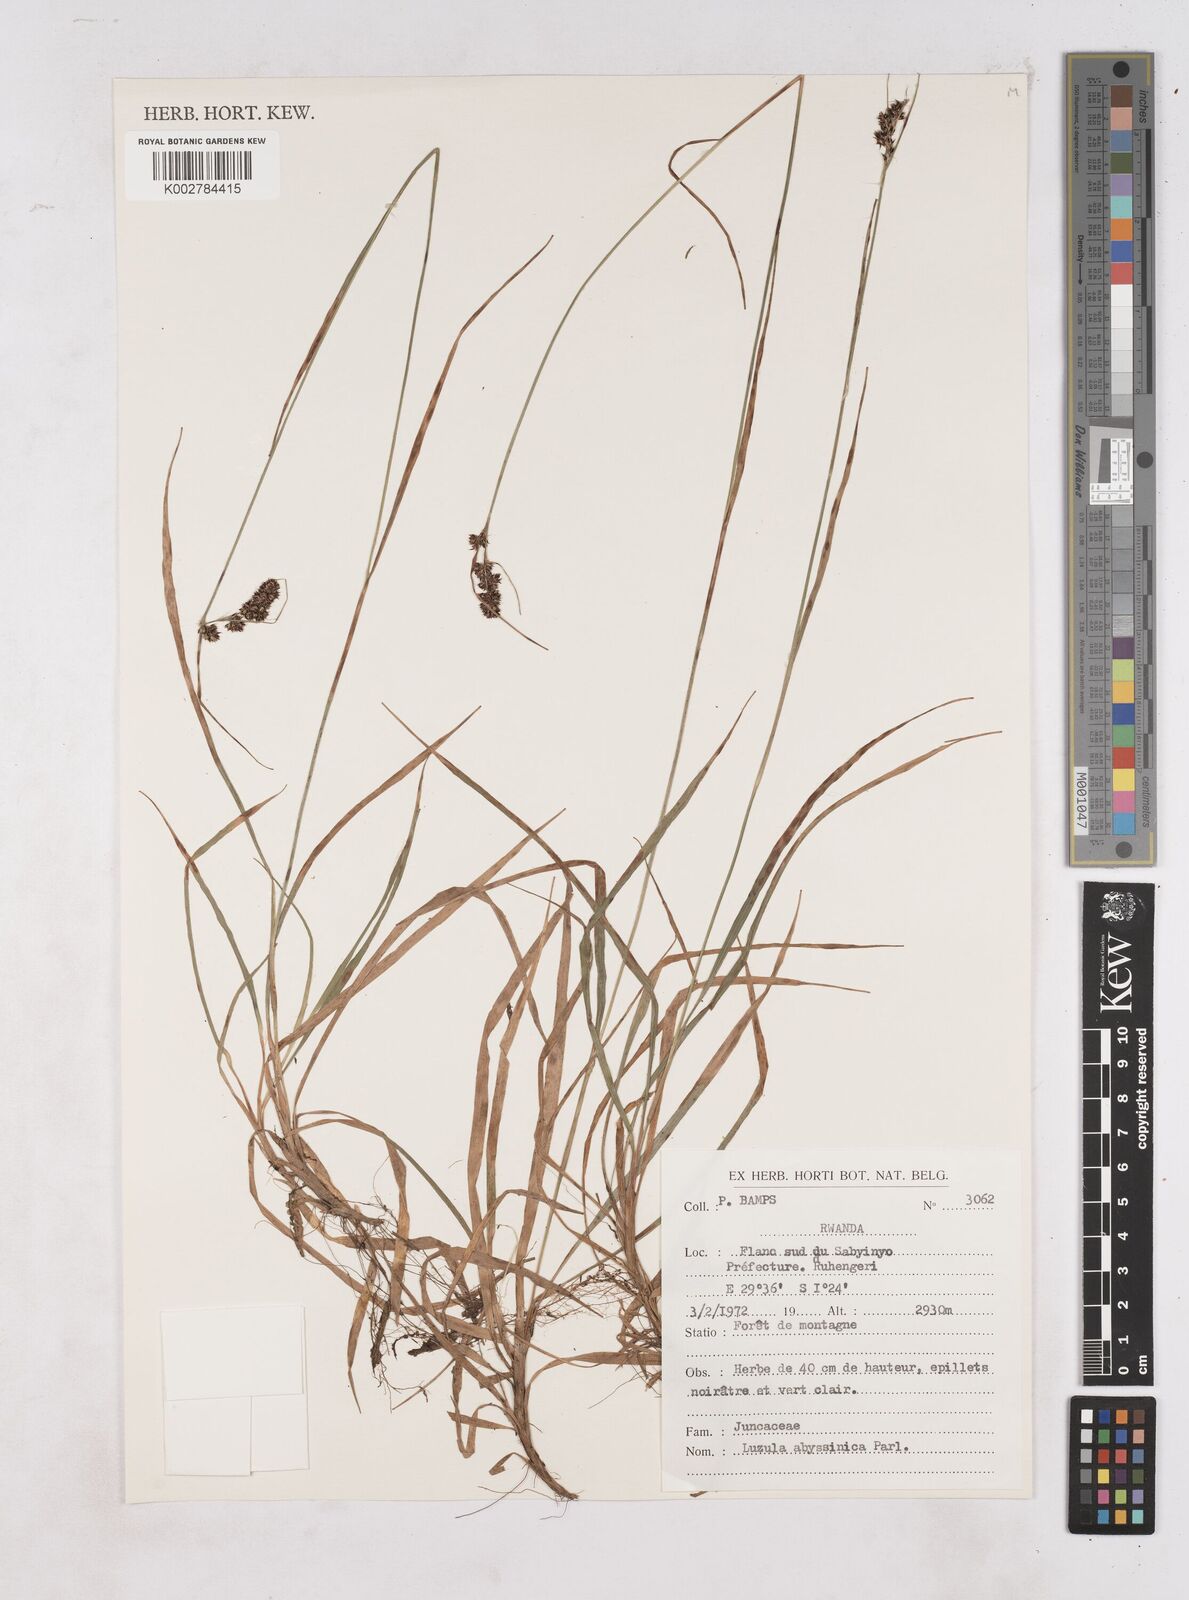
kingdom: Plantae
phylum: Tracheophyta
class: Liliopsida
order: Poales
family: Juncaceae
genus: Luzula
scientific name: Luzula abyssinica
